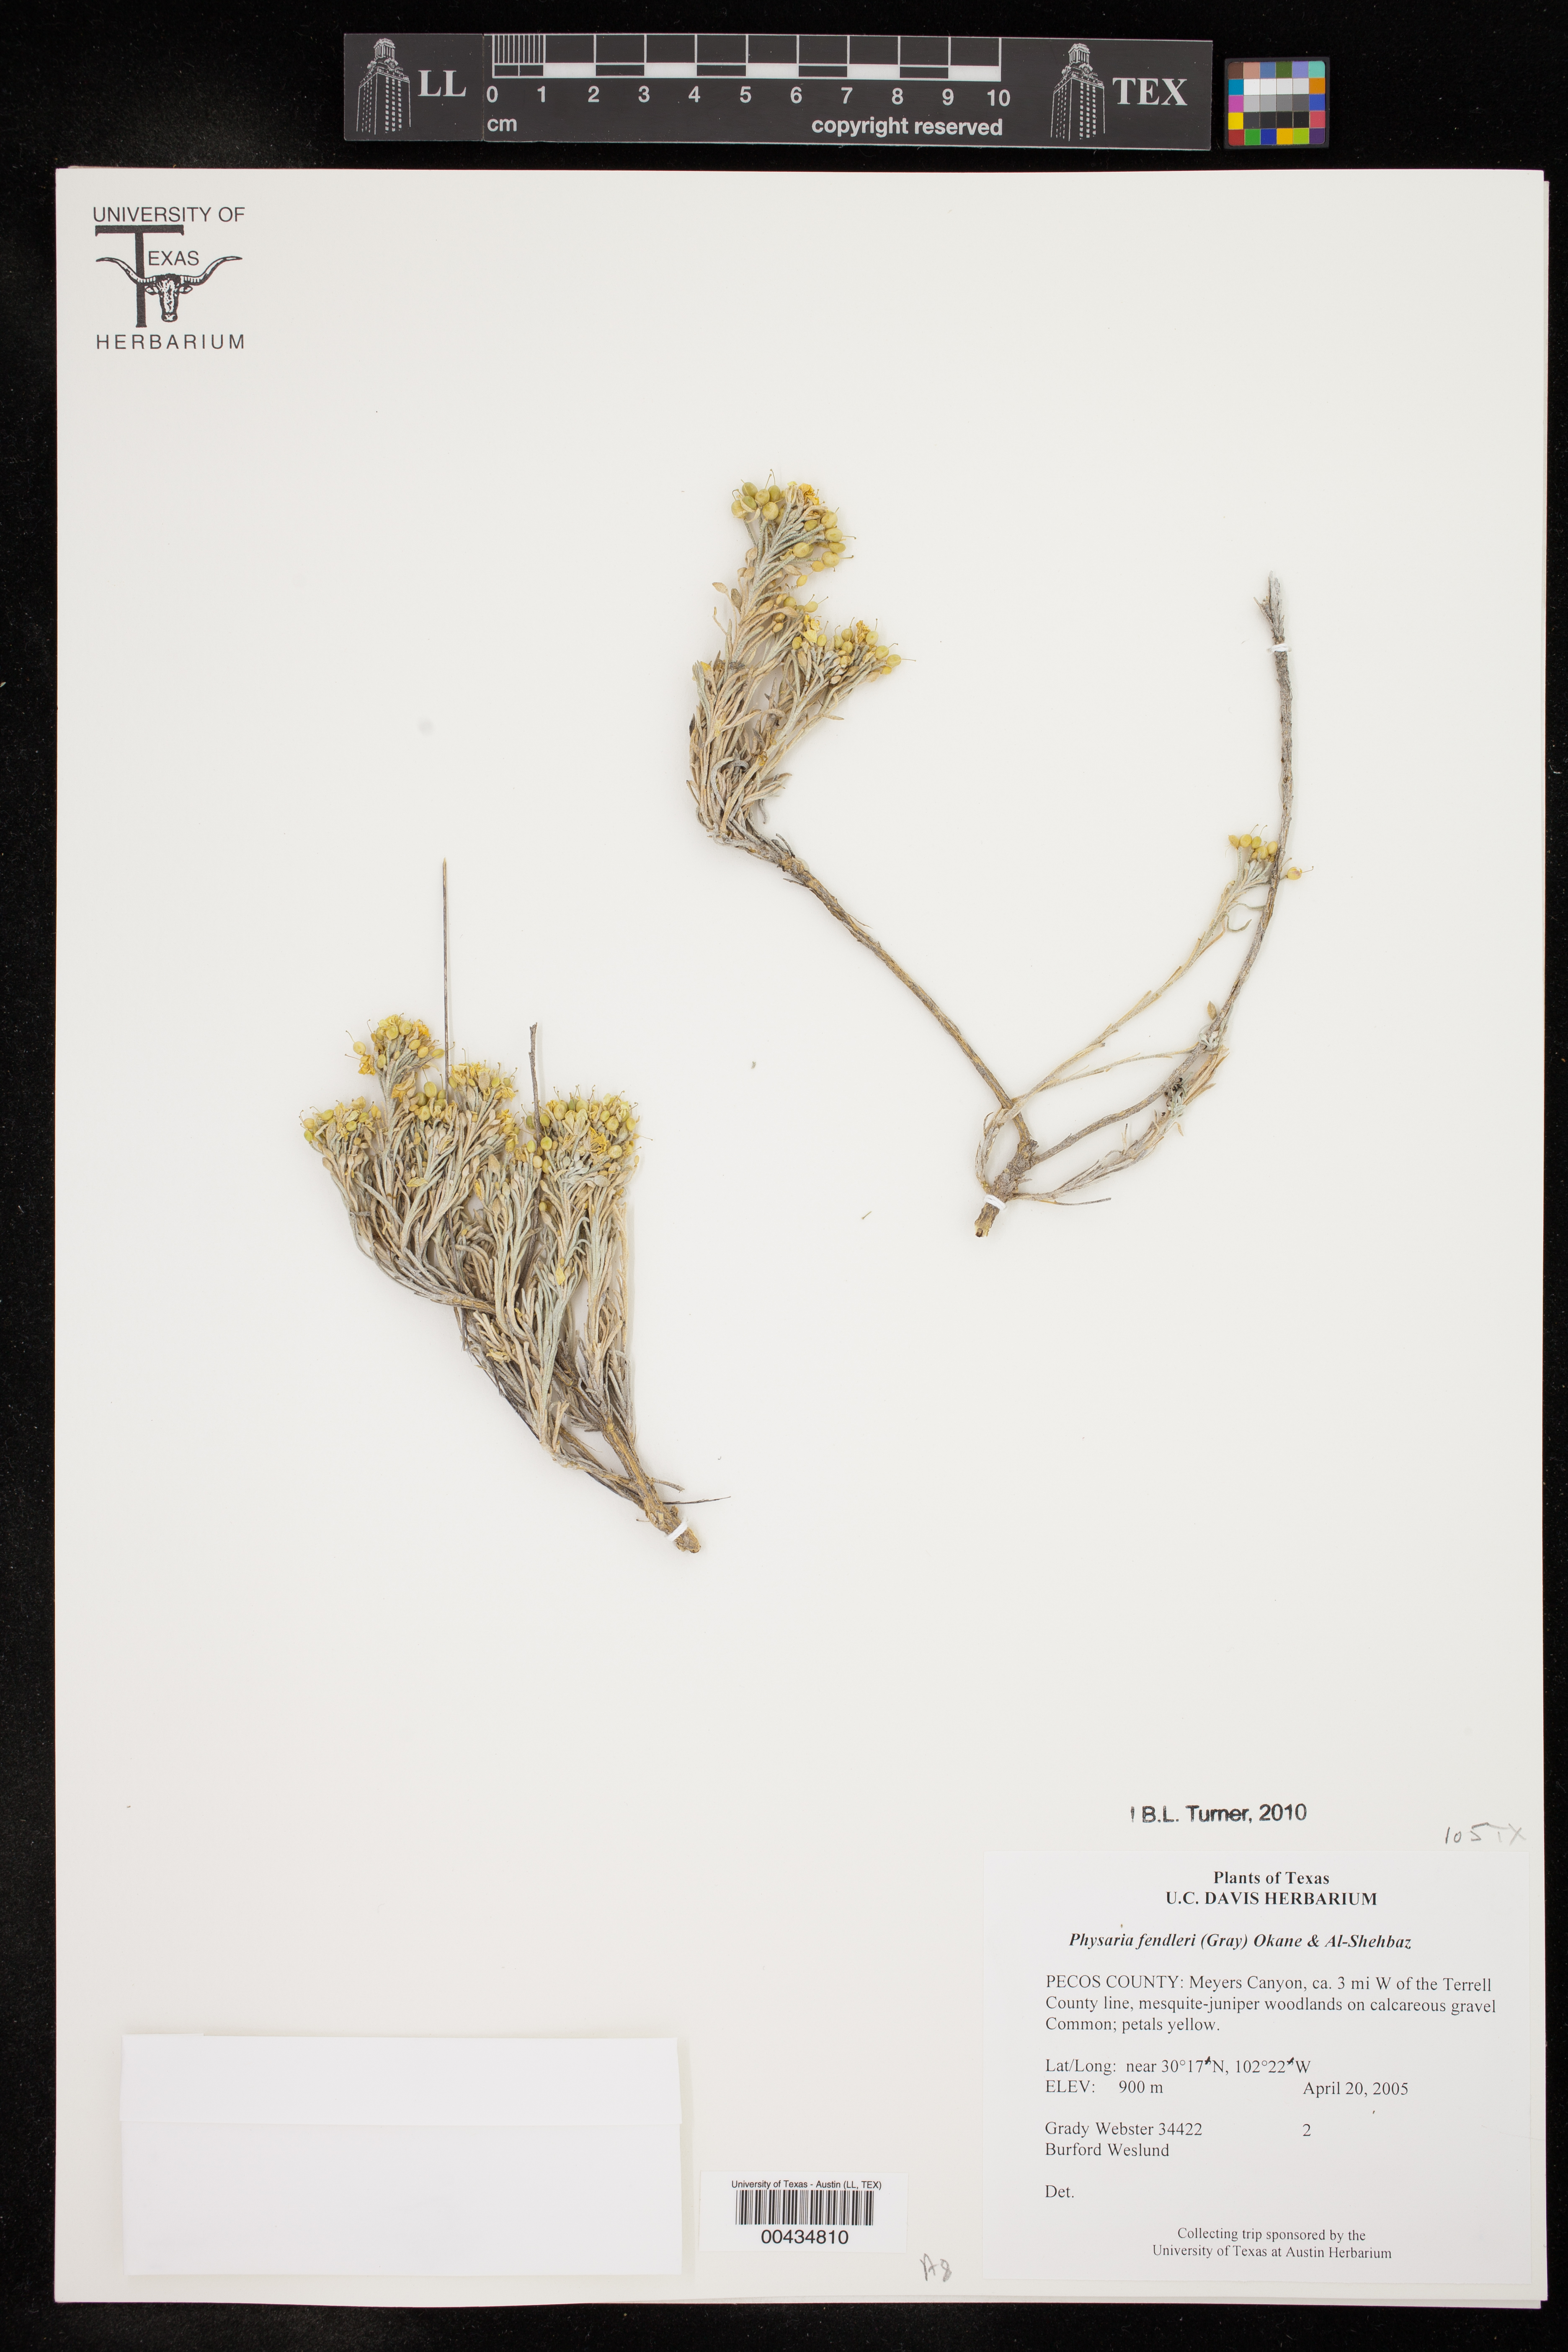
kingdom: Plantae
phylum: Tracheophyta
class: Magnoliopsida
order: Brassicales
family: Brassicaceae
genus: Physaria
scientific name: Physaria fendleri
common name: Fendler's bladderpod
